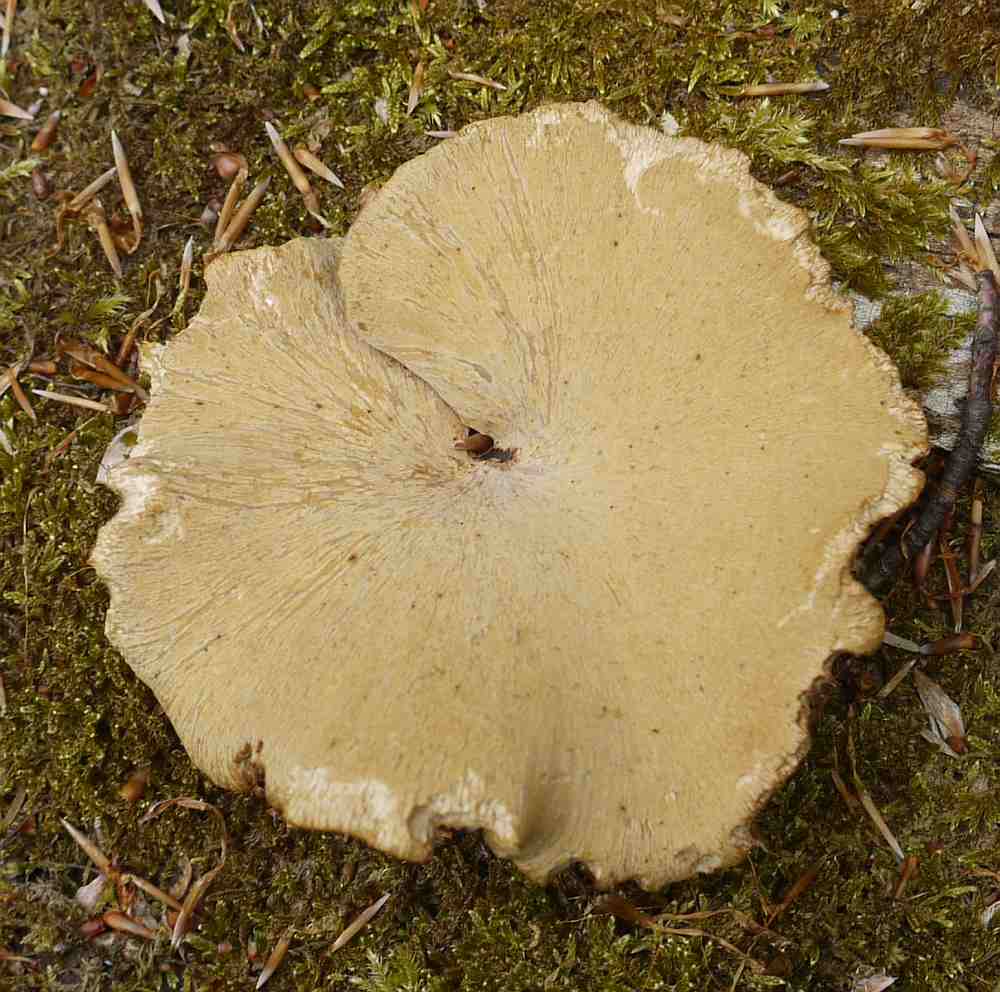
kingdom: Fungi
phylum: Basidiomycota
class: Agaricomycetes
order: Polyporales
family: Polyporaceae
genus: Cerioporus
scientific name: Cerioporus varius
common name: foranderlig stilkporesvamp
